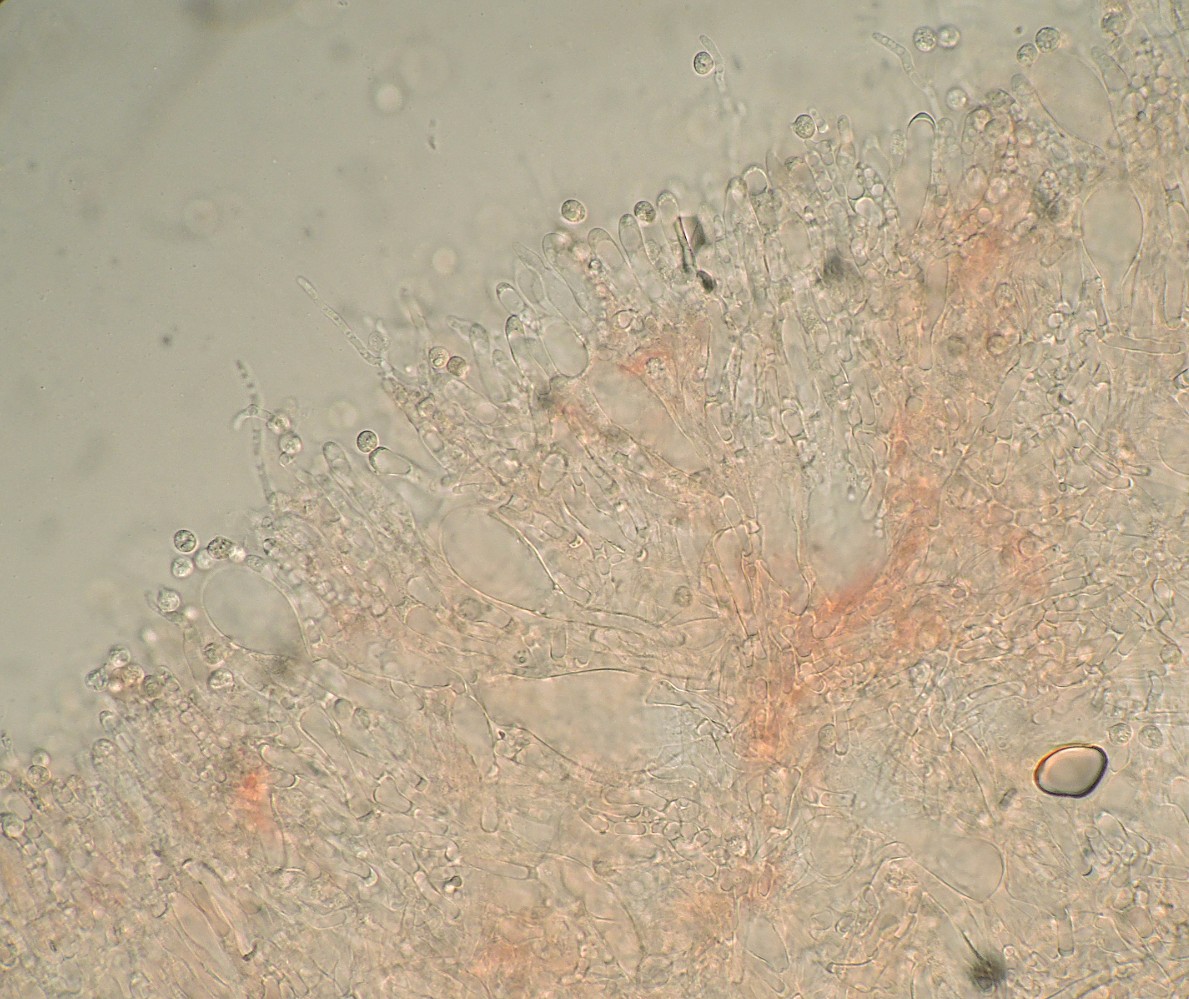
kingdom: Fungi
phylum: Basidiomycota
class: Agaricomycetes
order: Russulales
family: Peniophoraceae
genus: Gloiothele
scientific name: Gloiothele citrina
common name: citronskorpe
